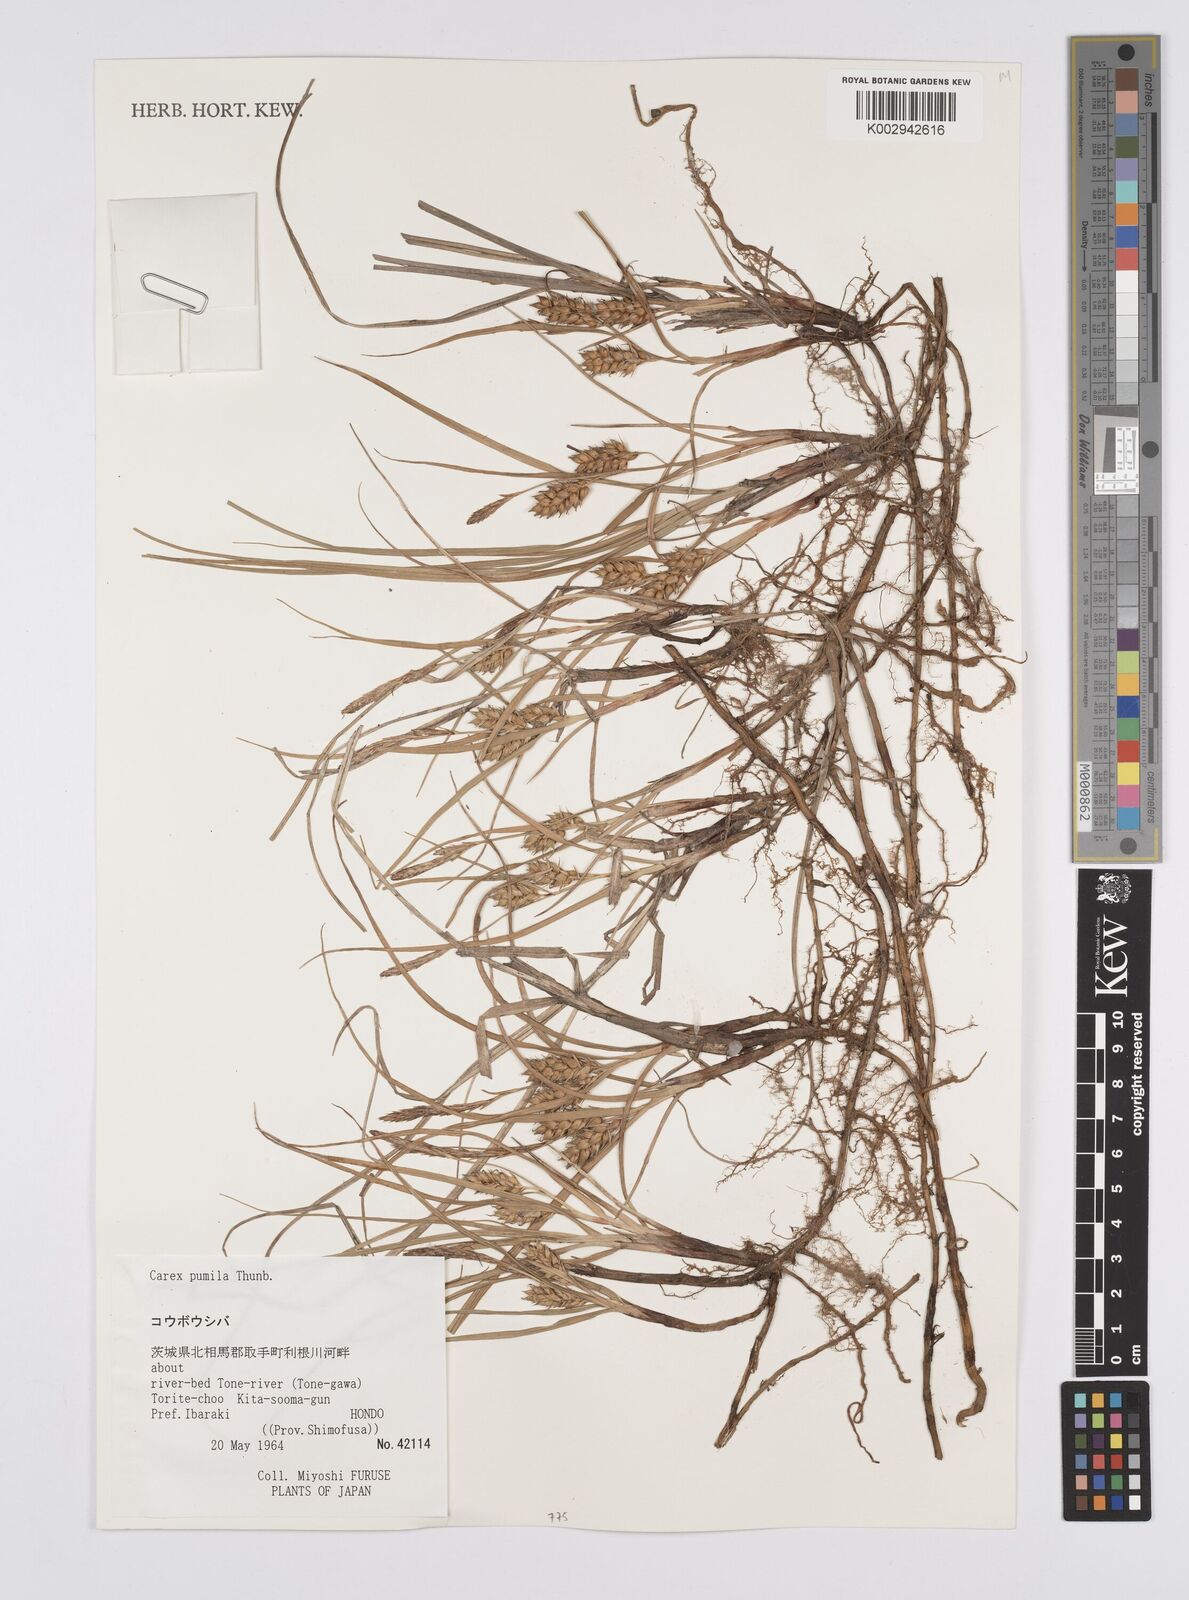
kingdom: Plantae
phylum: Tracheophyta
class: Liliopsida
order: Poales
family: Cyperaceae
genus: Carex
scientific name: Carex pumila
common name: Dwarf sedge
